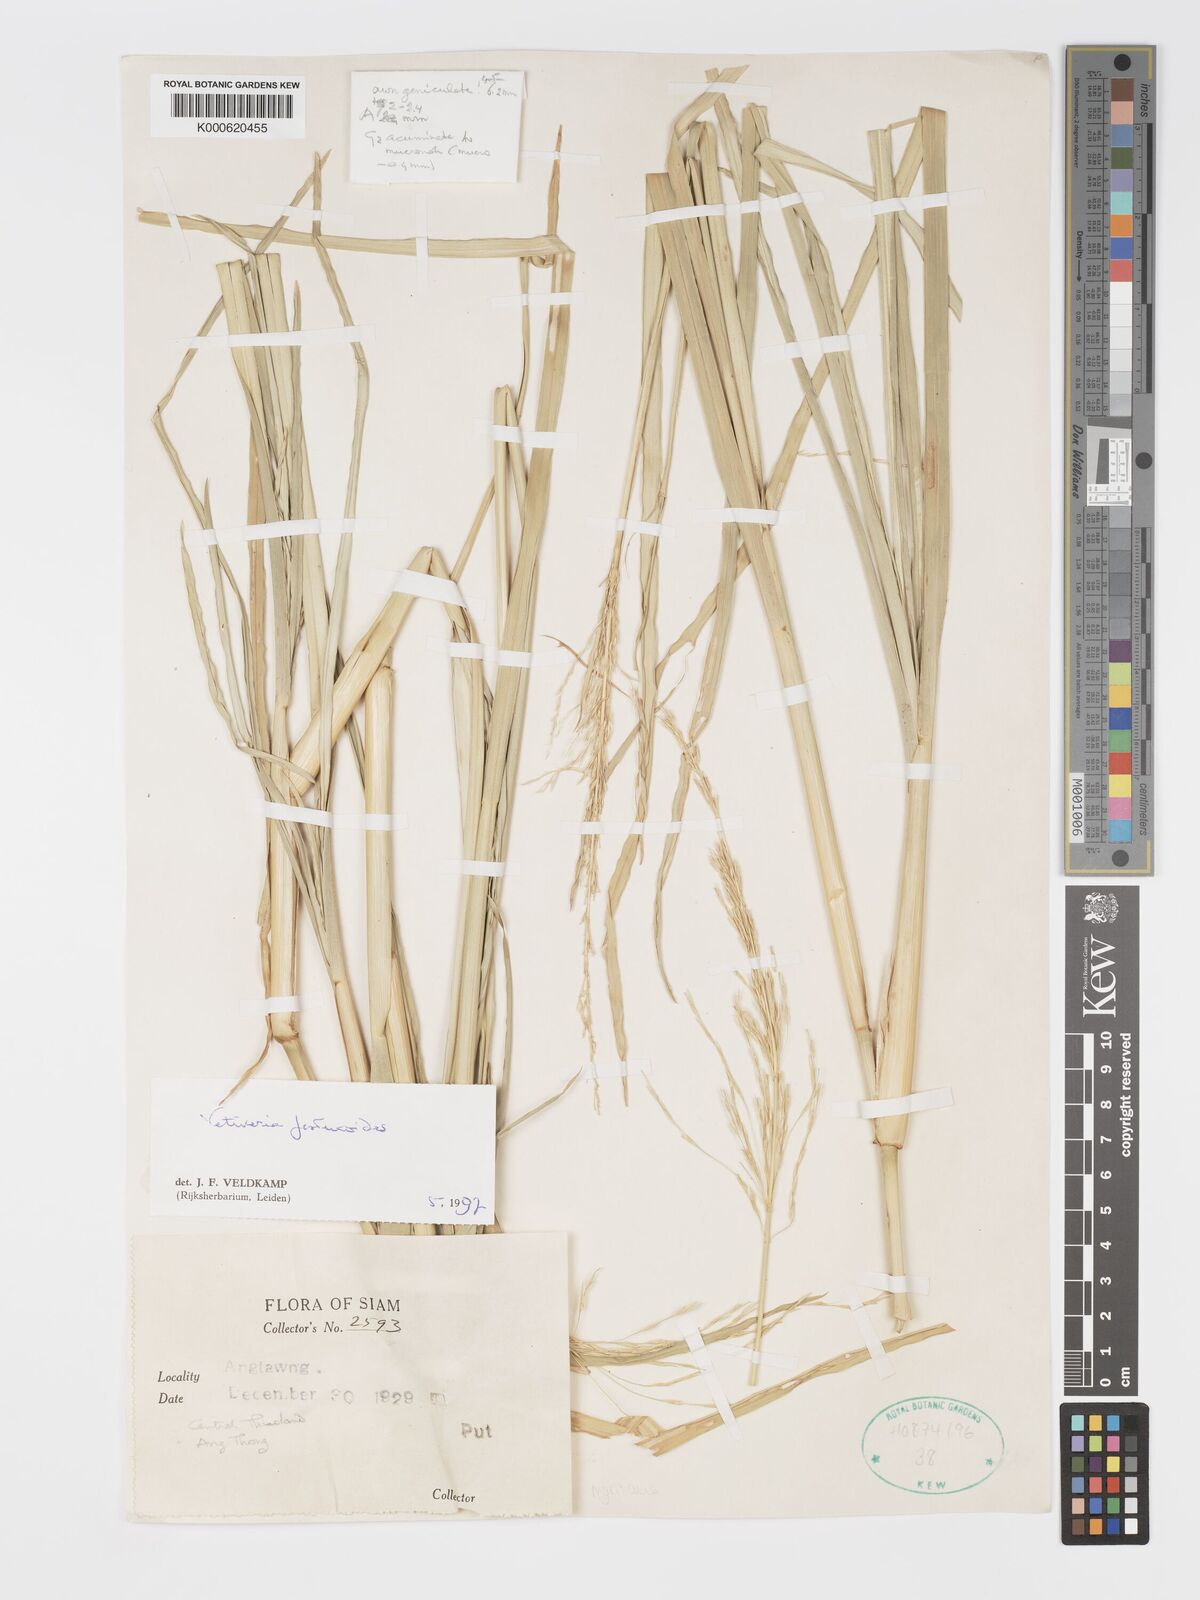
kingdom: Plantae
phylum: Tracheophyta
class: Liliopsida
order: Poales
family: Poaceae
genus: Chrysopogon
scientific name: Chrysopogon festucoides
